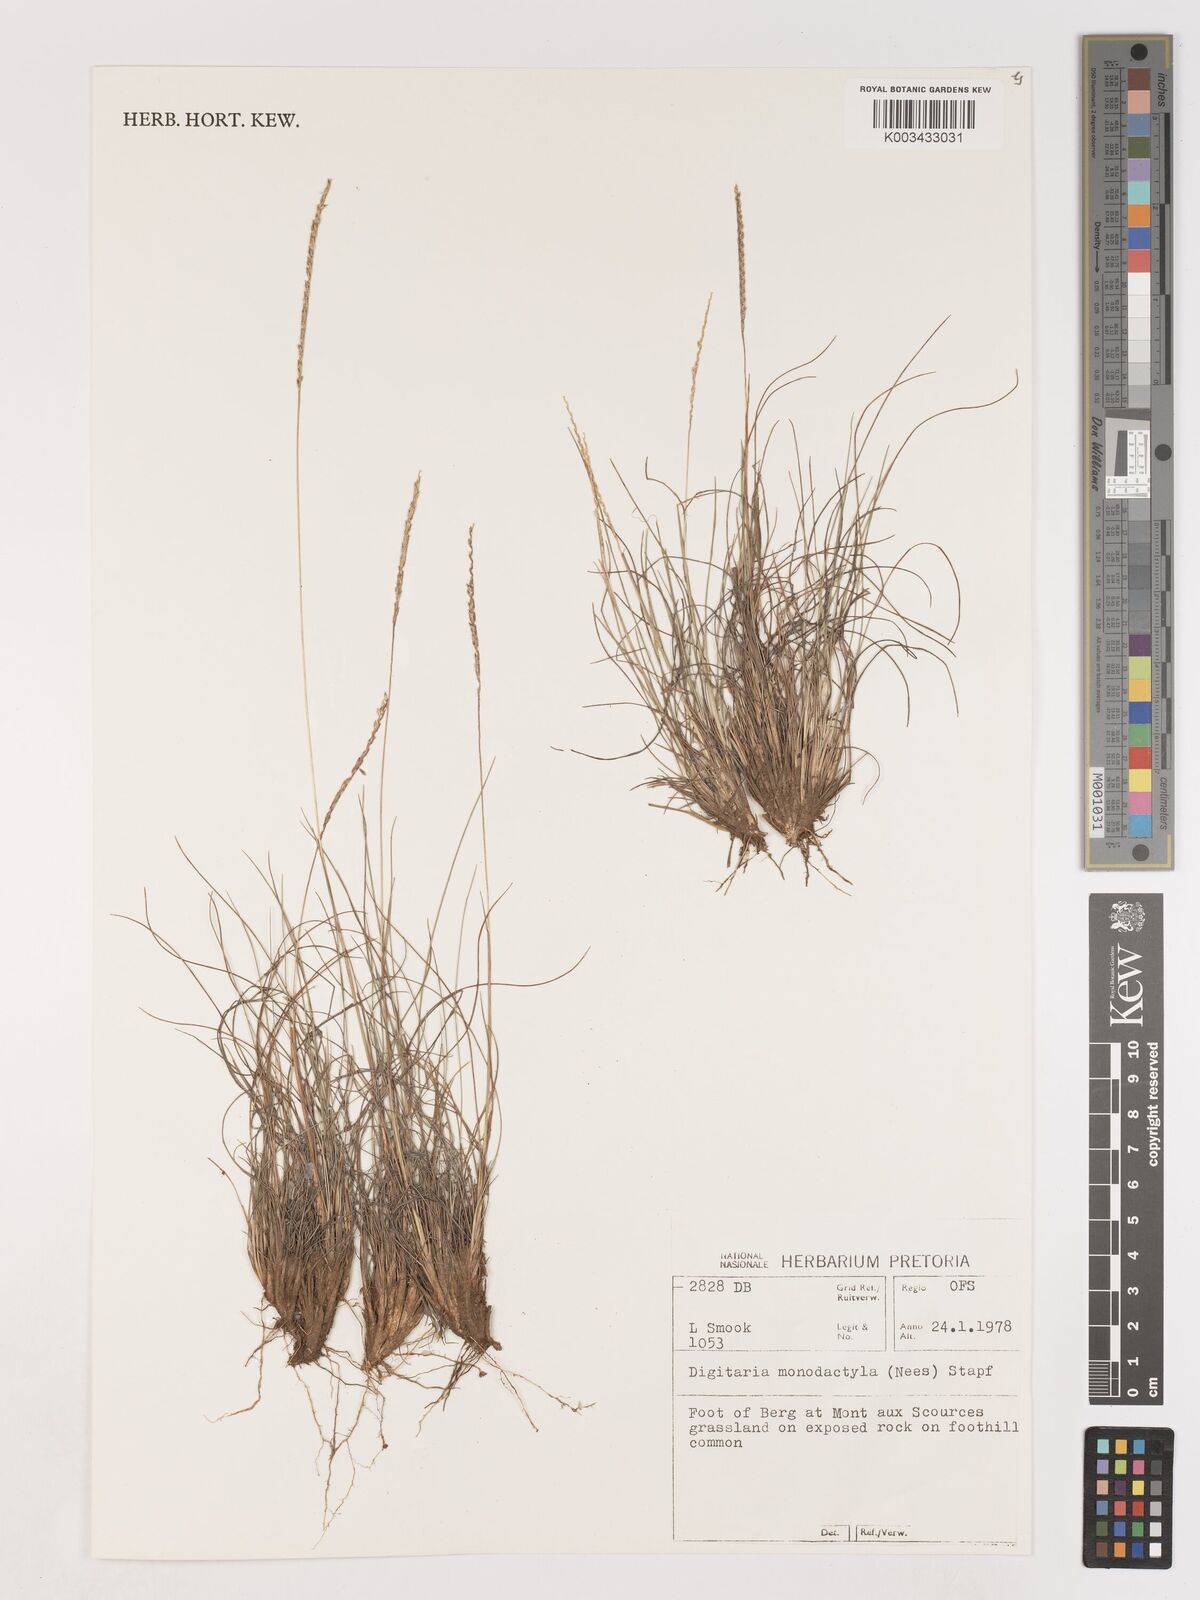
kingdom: Plantae
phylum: Tracheophyta
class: Liliopsida
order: Poales
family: Poaceae
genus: Digitaria
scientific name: Digitaria monodactyla
